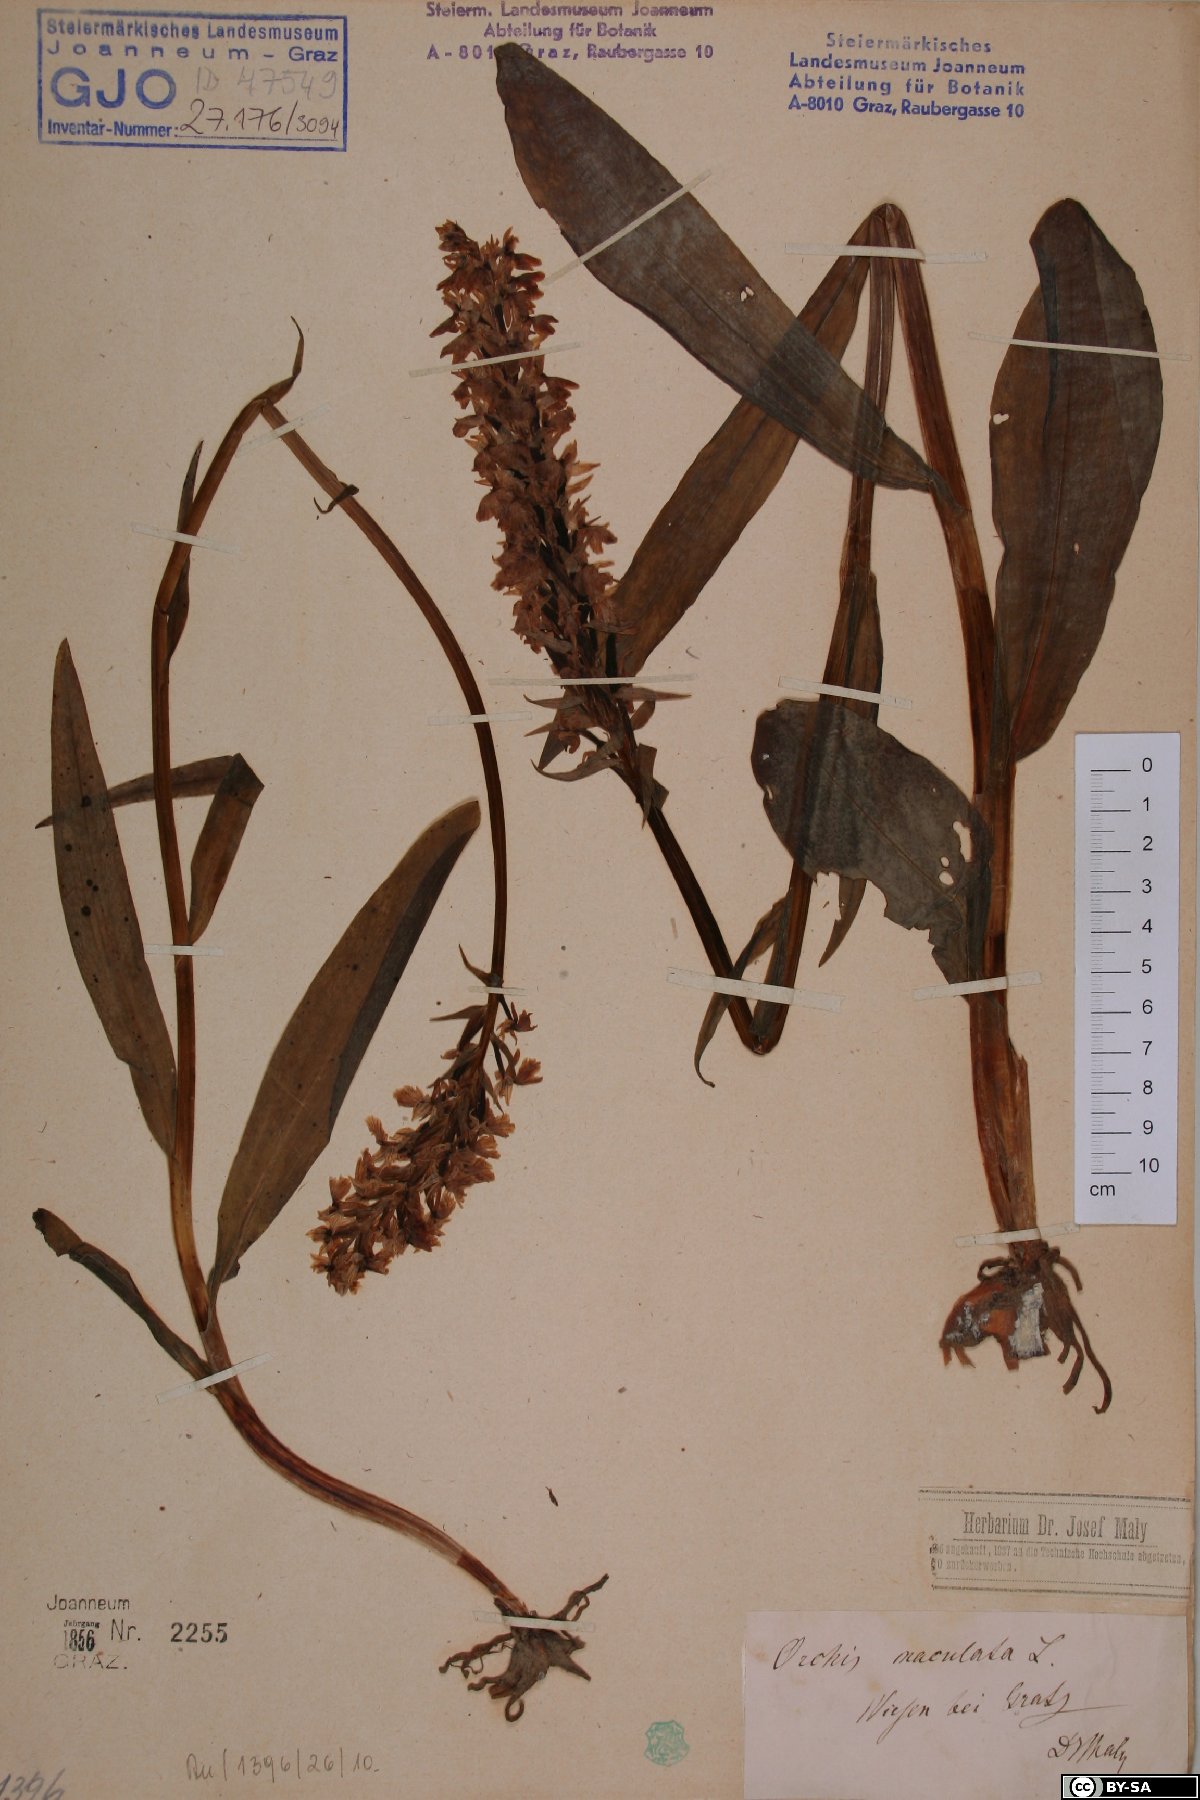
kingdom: Plantae
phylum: Tracheophyta
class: Liliopsida
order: Asparagales
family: Orchidaceae
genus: Dactylorhiza
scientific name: Dactylorhiza maculata
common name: Heath spotted-orchid
